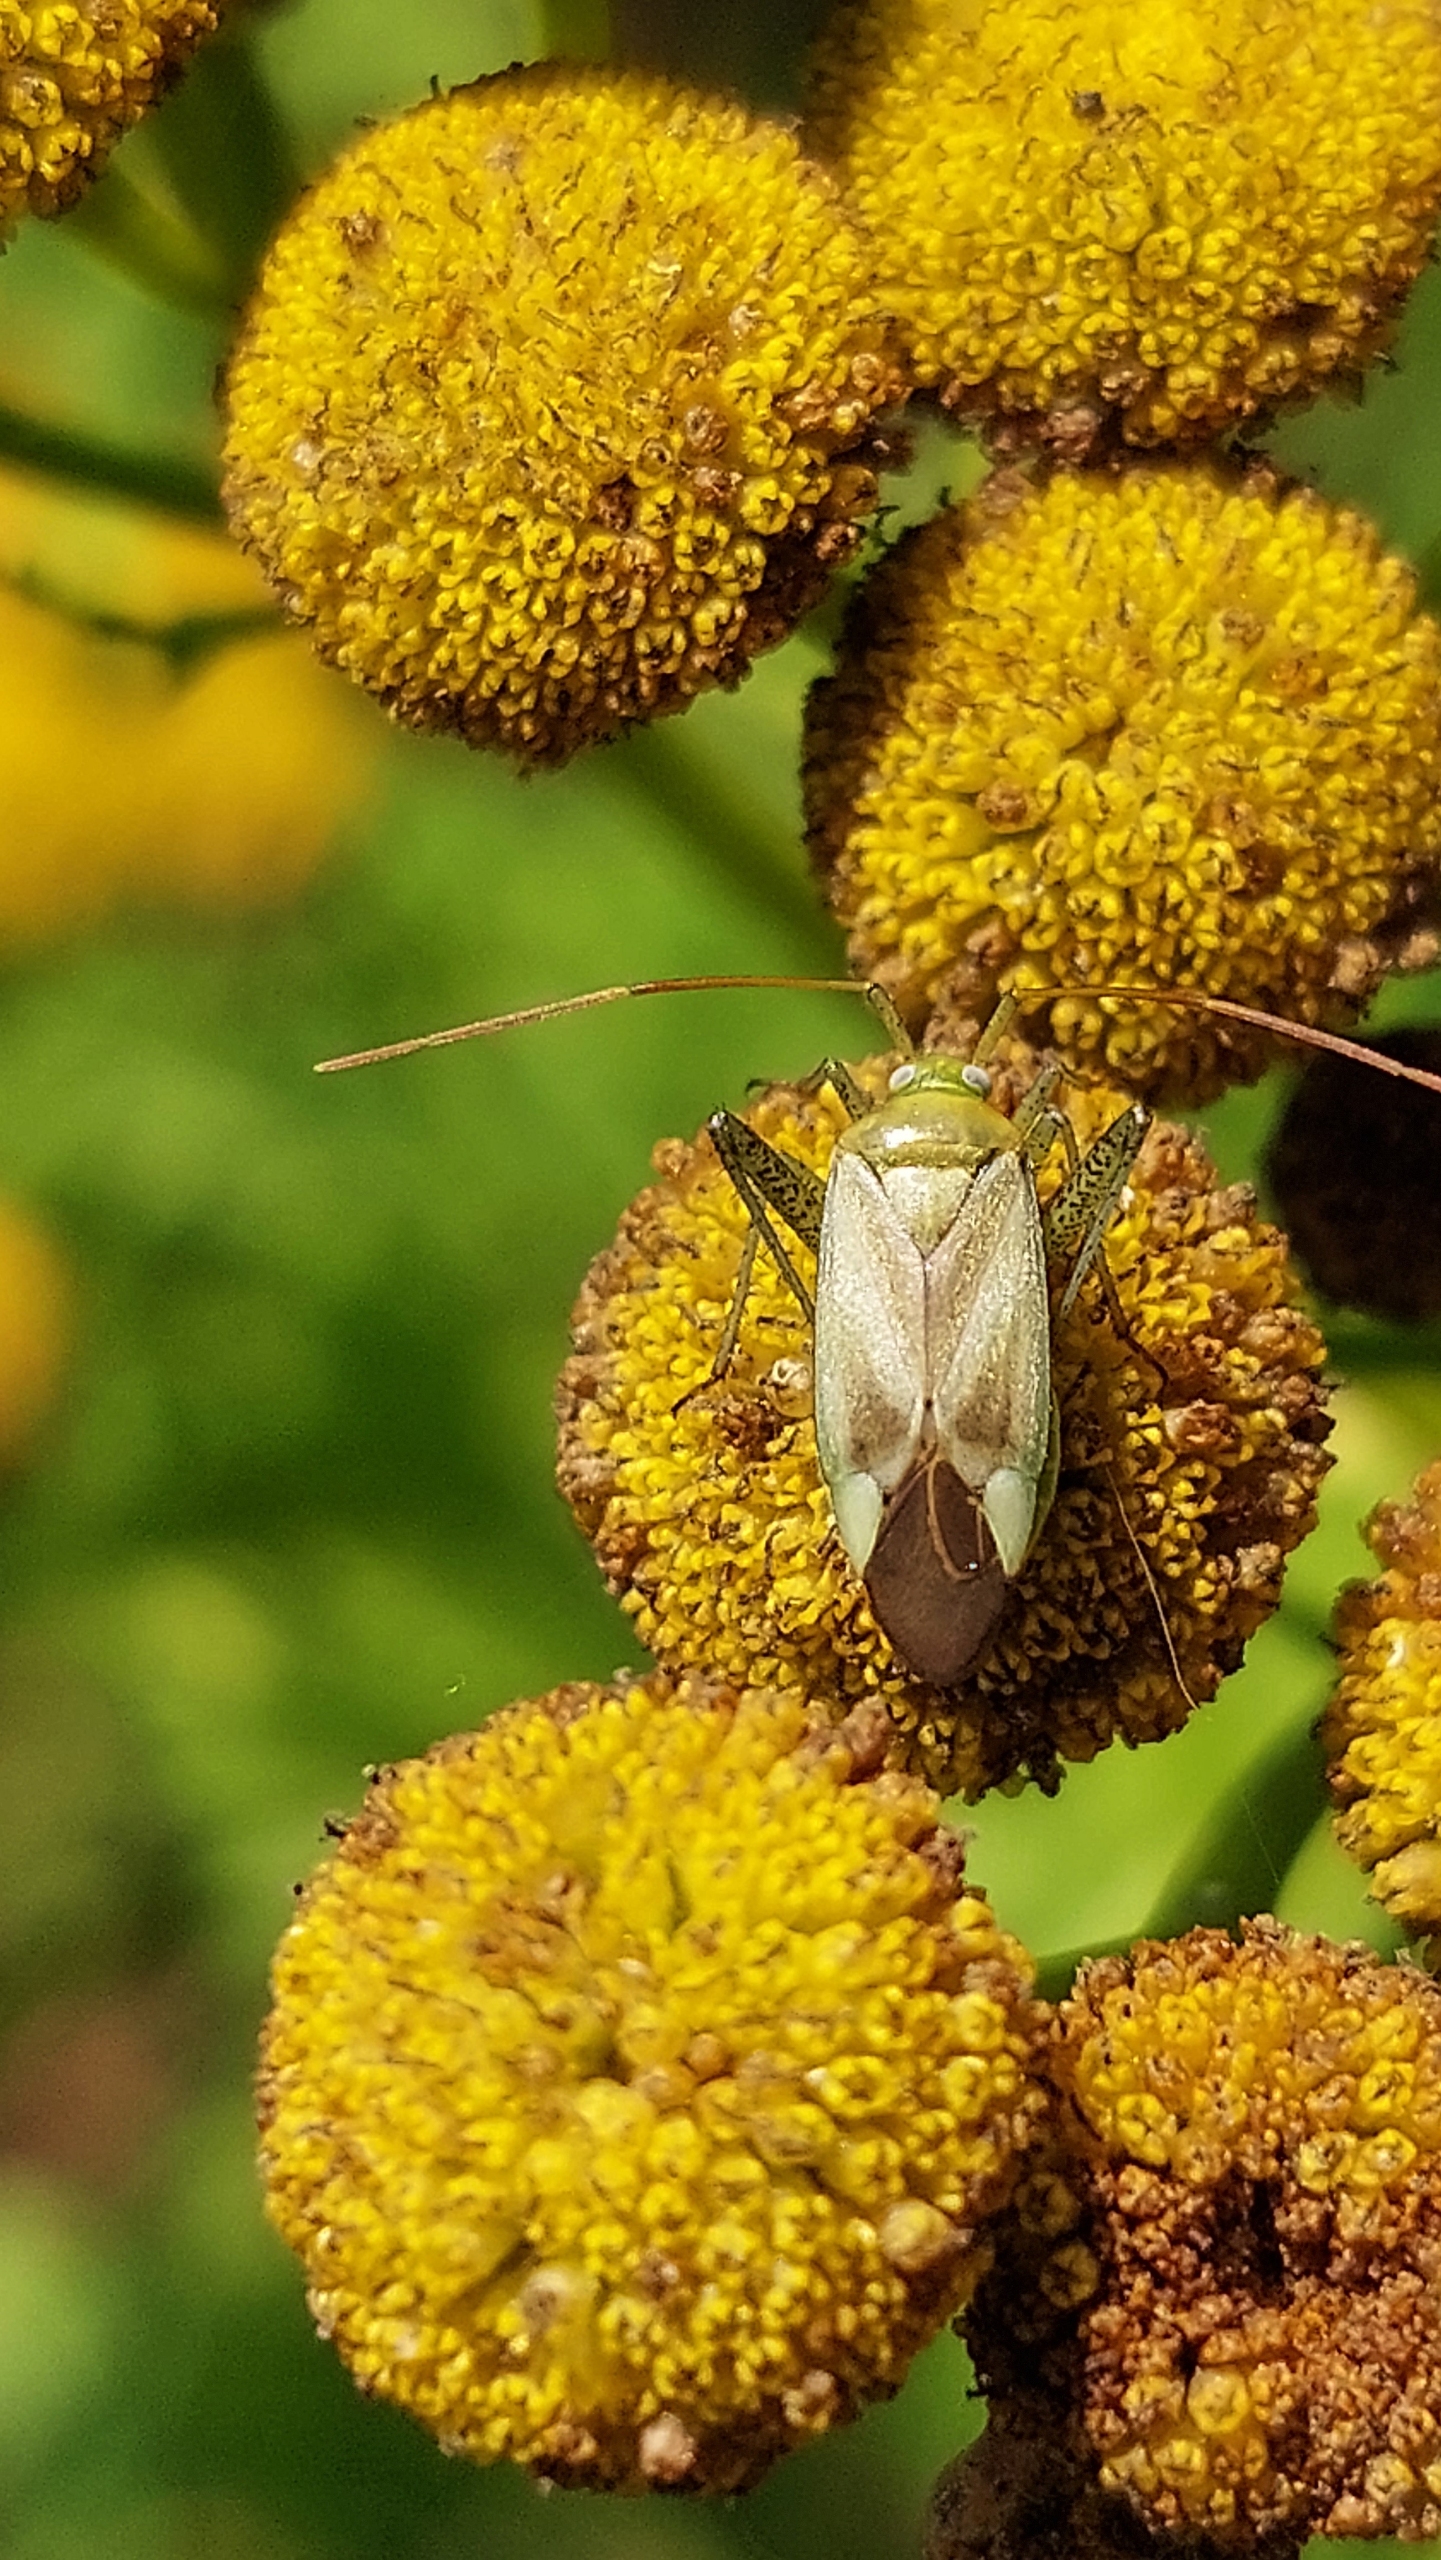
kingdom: Animalia
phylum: Arthropoda
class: Insecta
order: Hemiptera
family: Miridae
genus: Adelphocoris
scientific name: Adelphocoris lineolatus
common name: Lucernetæge
